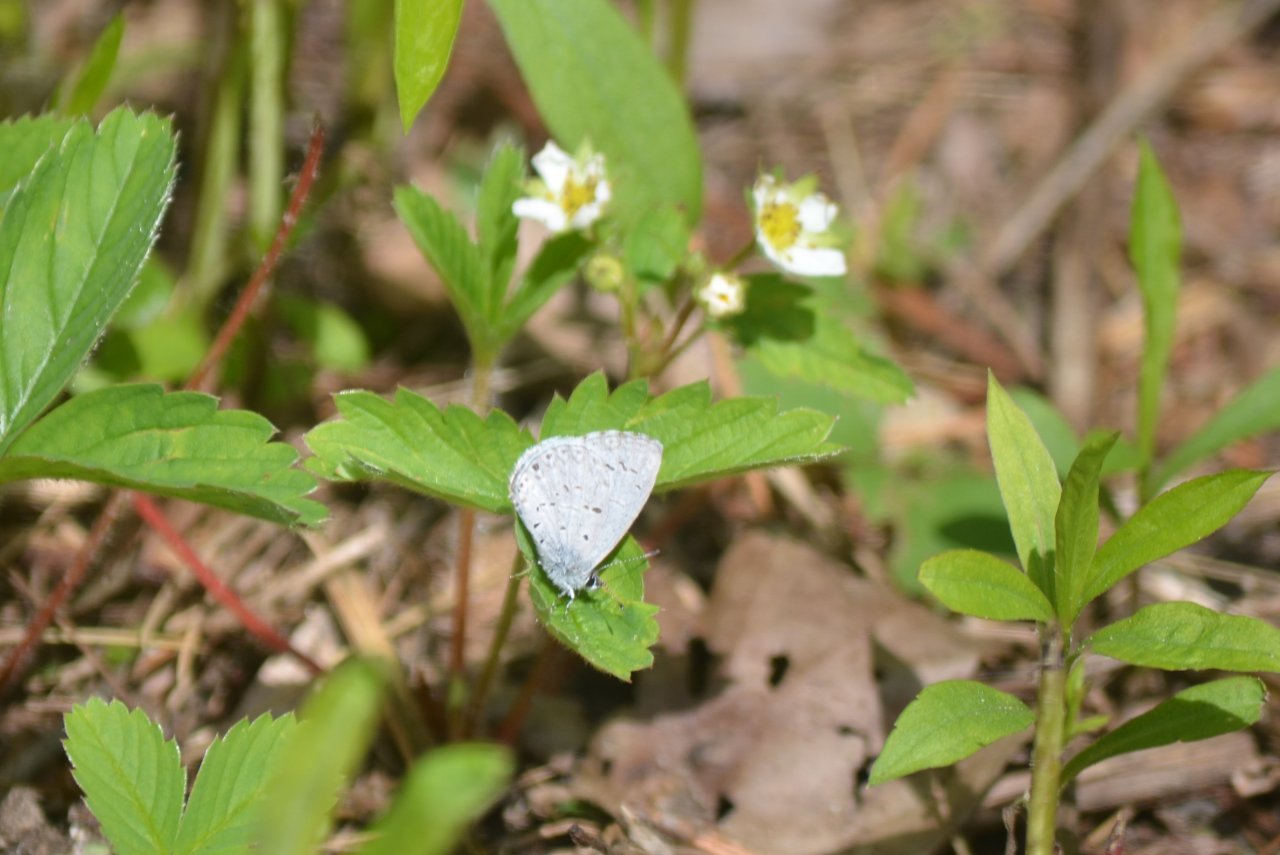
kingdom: Animalia
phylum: Arthropoda
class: Insecta
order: Lepidoptera
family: Lycaenidae
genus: Celastrina
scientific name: Celastrina
